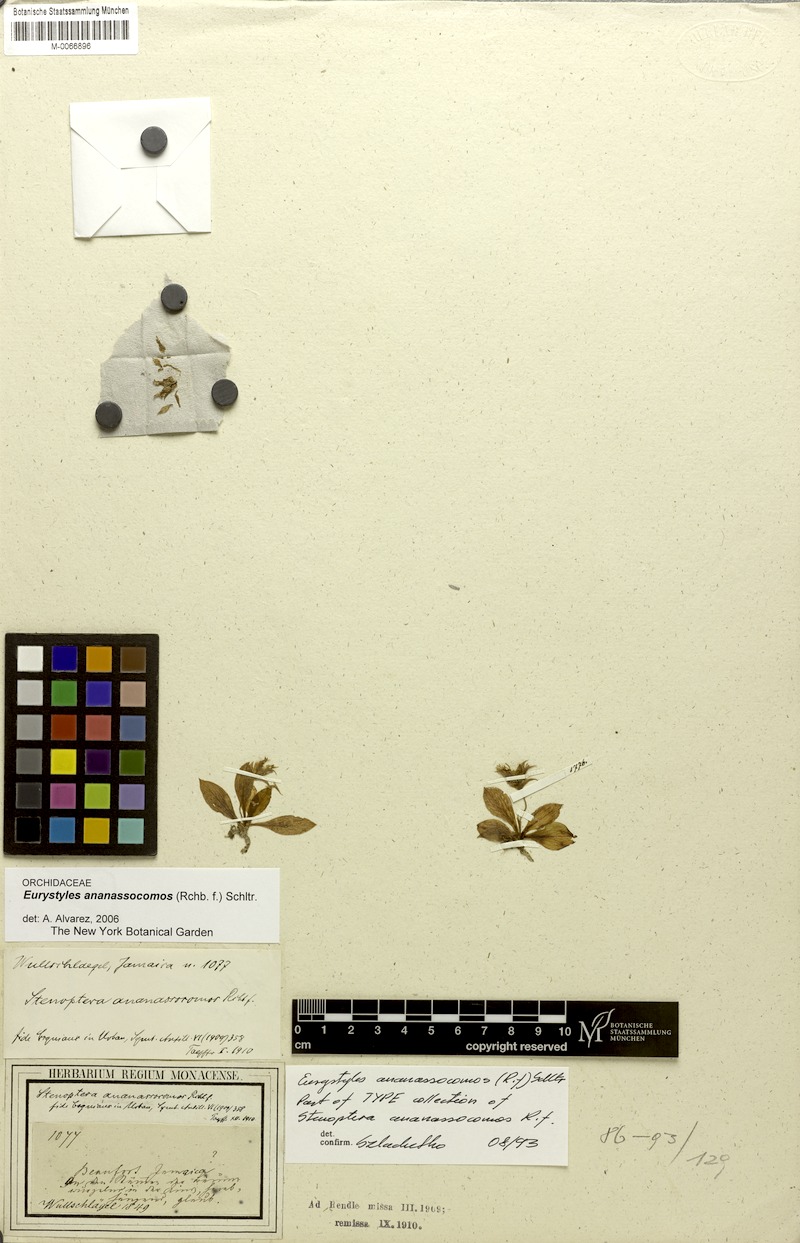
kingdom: Plantae
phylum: Tracheophyta
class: Liliopsida
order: Asparagales
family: Orchidaceae
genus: Eurystyles
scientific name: Eurystyles ananassocomos
